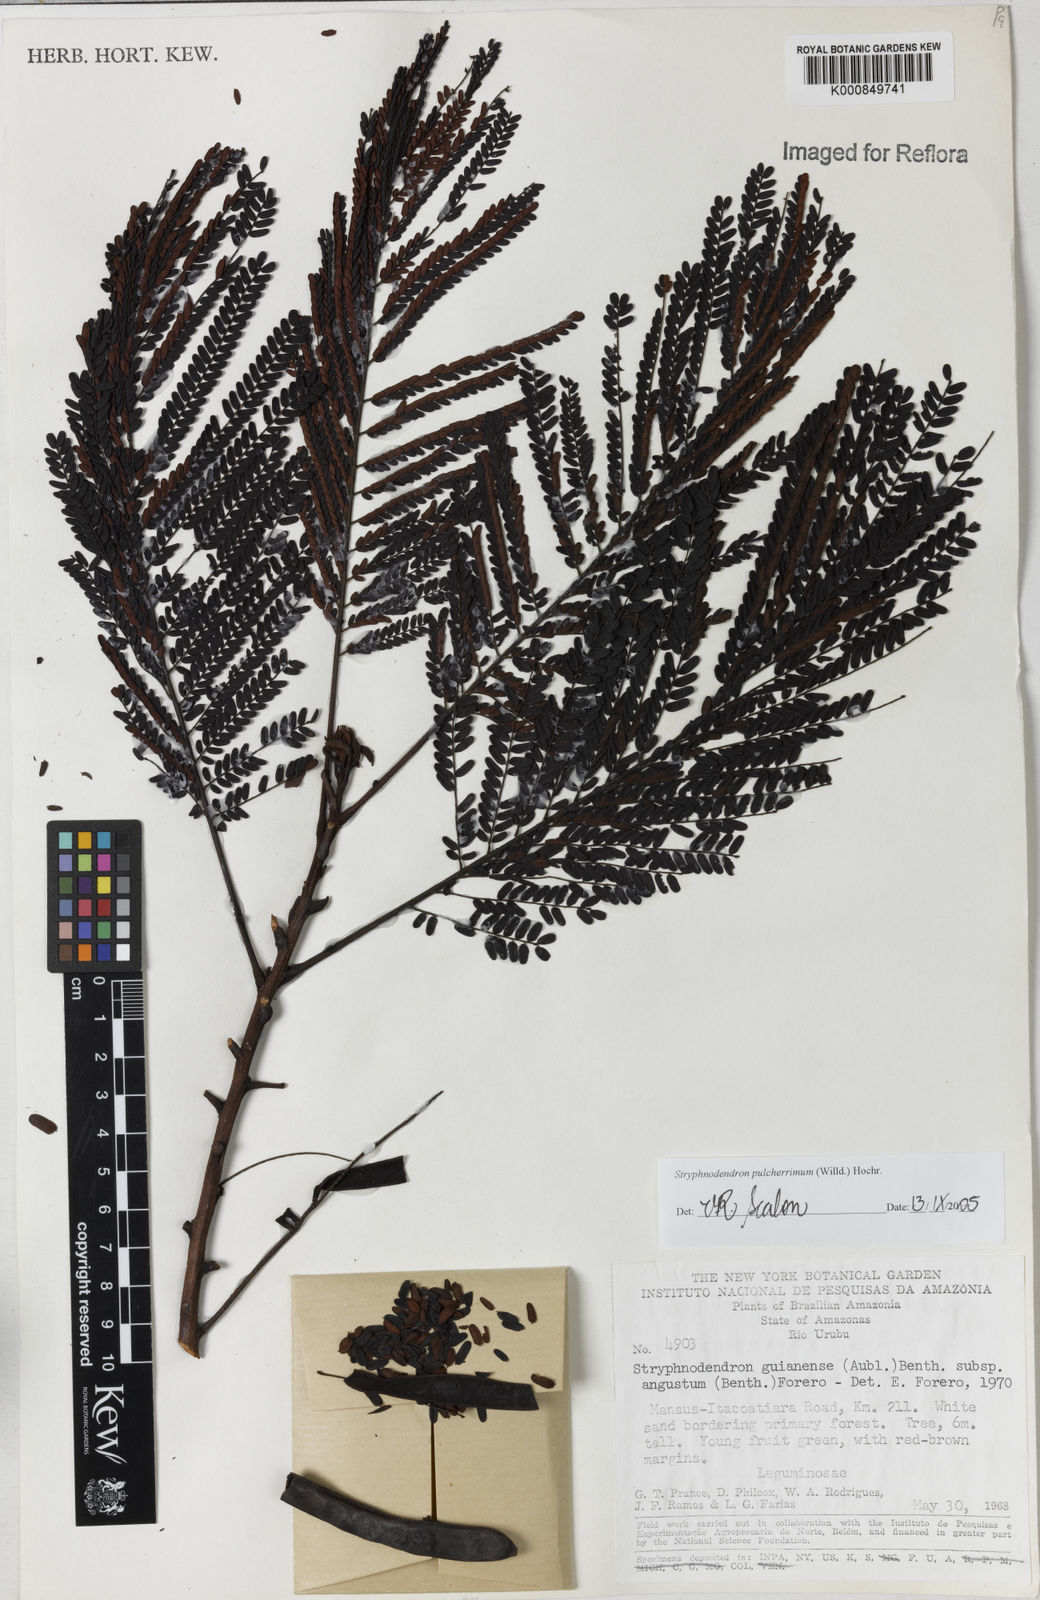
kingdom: Plantae
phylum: Tracheophyta
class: Magnoliopsida
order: Fabales
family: Fabaceae
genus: Stryphnodendron
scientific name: Stryphnodendron pulcherrimum
